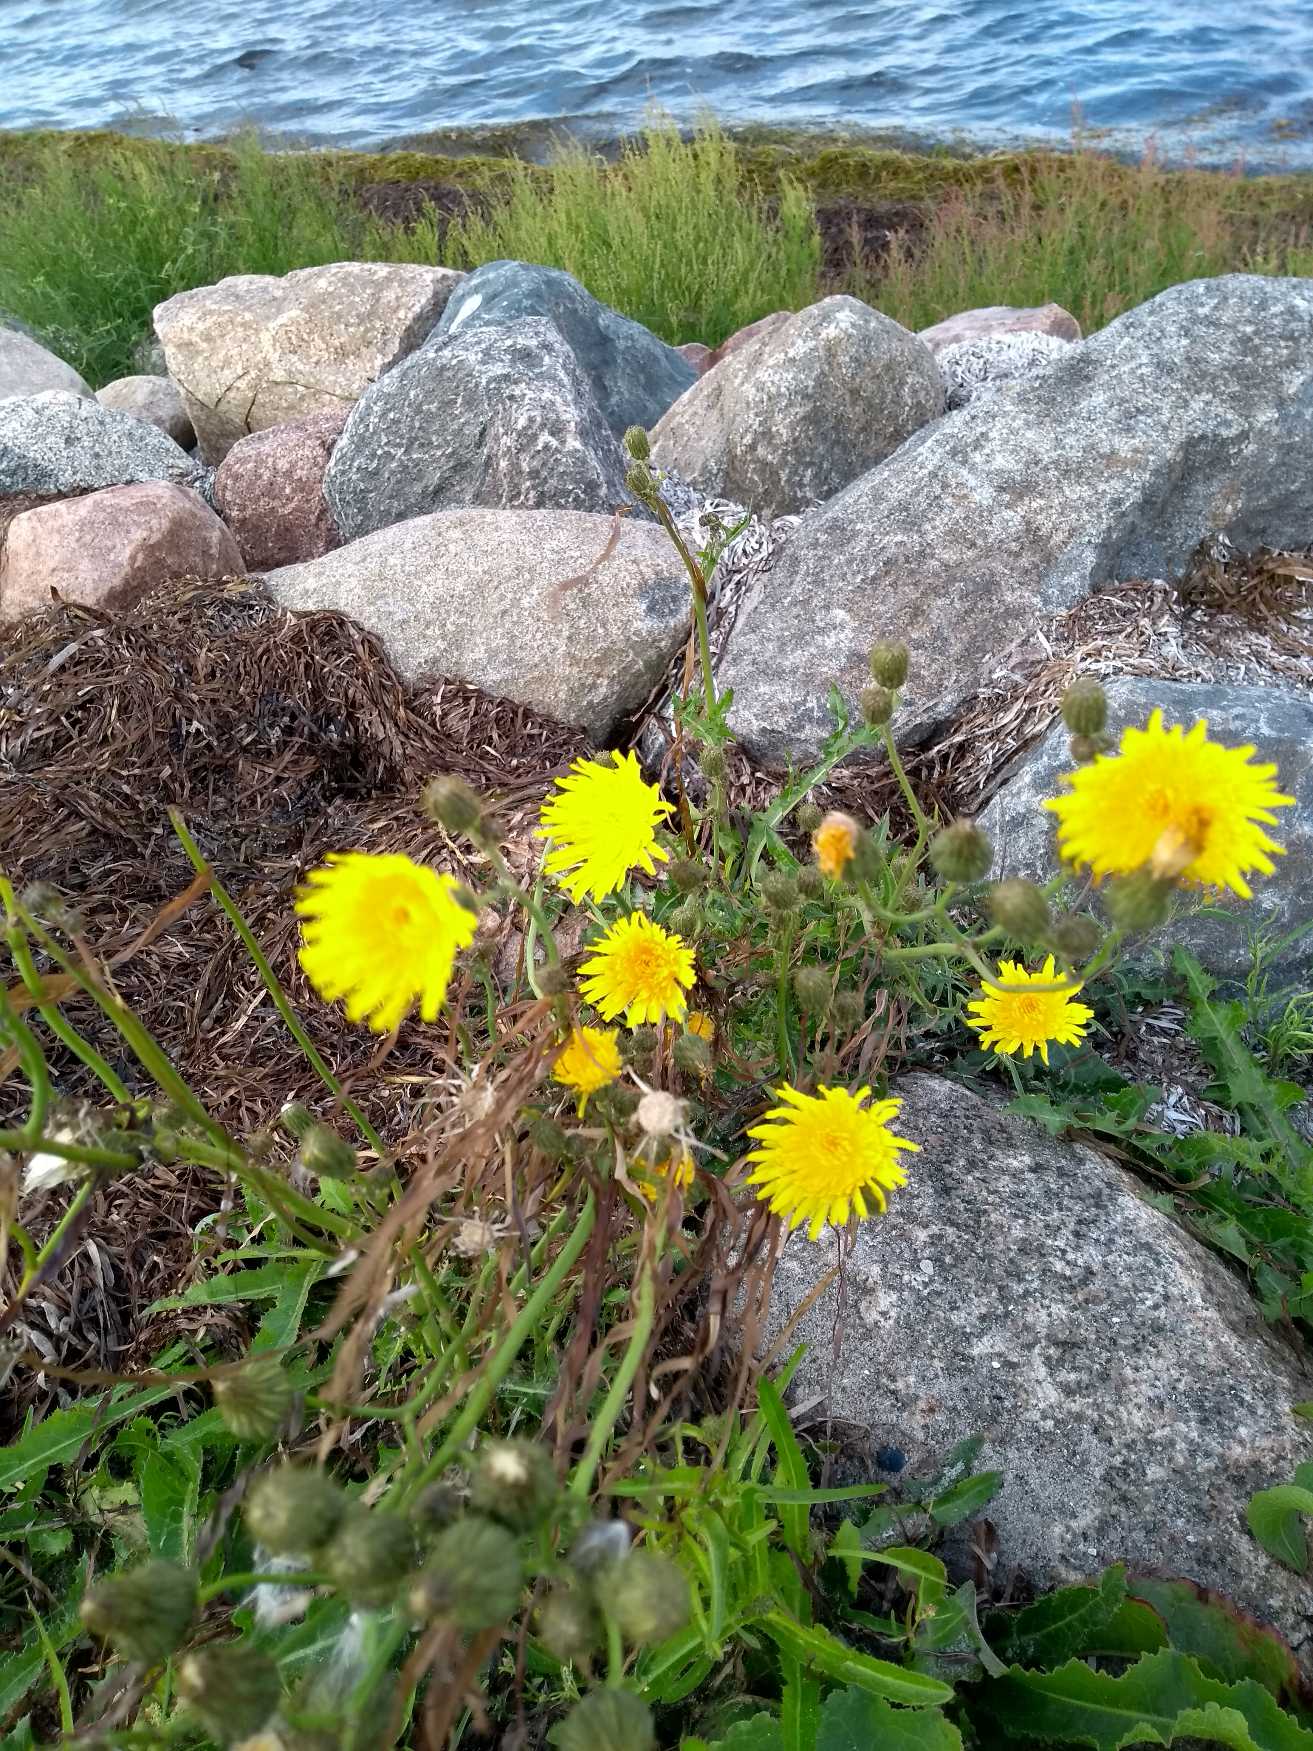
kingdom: Plantae
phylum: Tracheophyta
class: Magnoliopsida
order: Asterales
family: Asteraceae
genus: Sonchus
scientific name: Sonchus arvensis
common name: Ager-svinemælk
